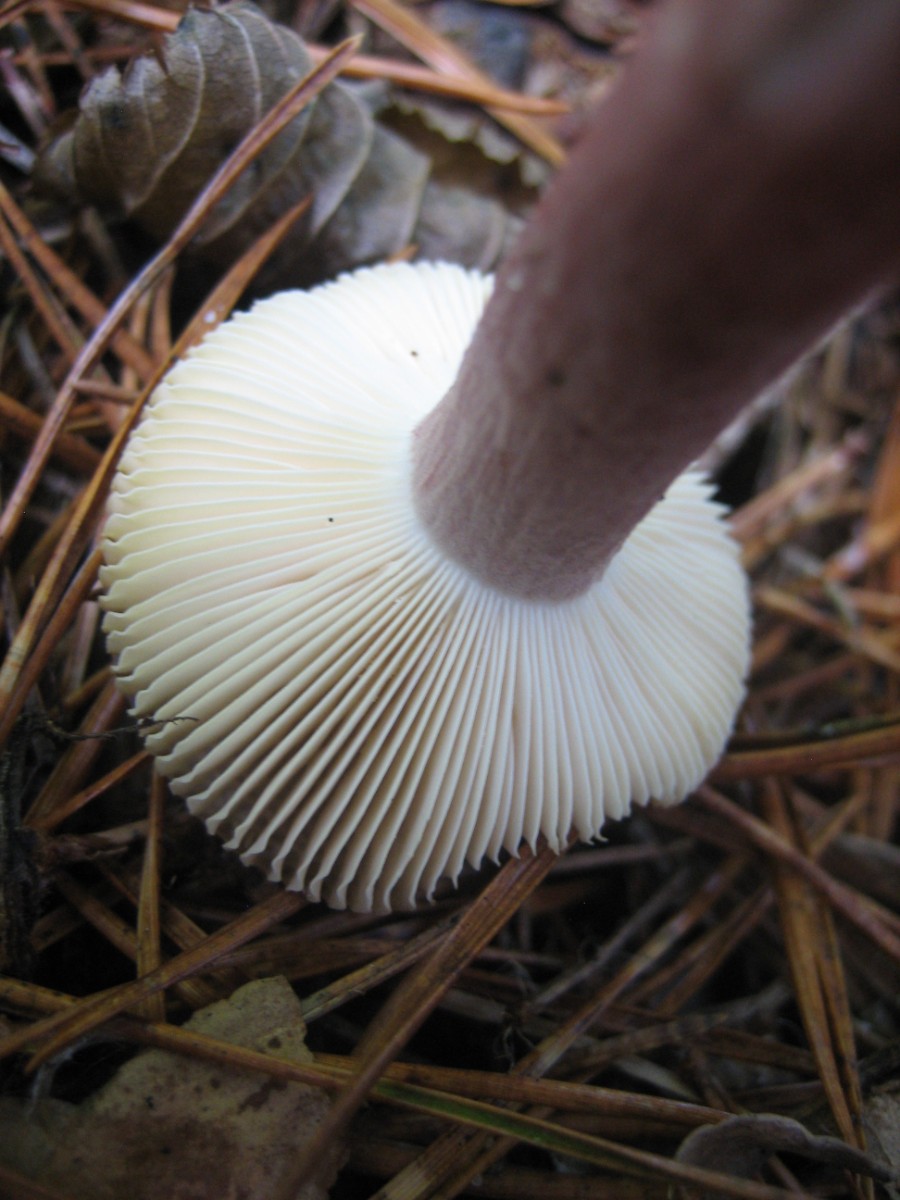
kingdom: Fungi
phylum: Basidiomycota
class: Agaricomycetes
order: Russulales
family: Russulaceae
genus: Russula
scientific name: Russula
